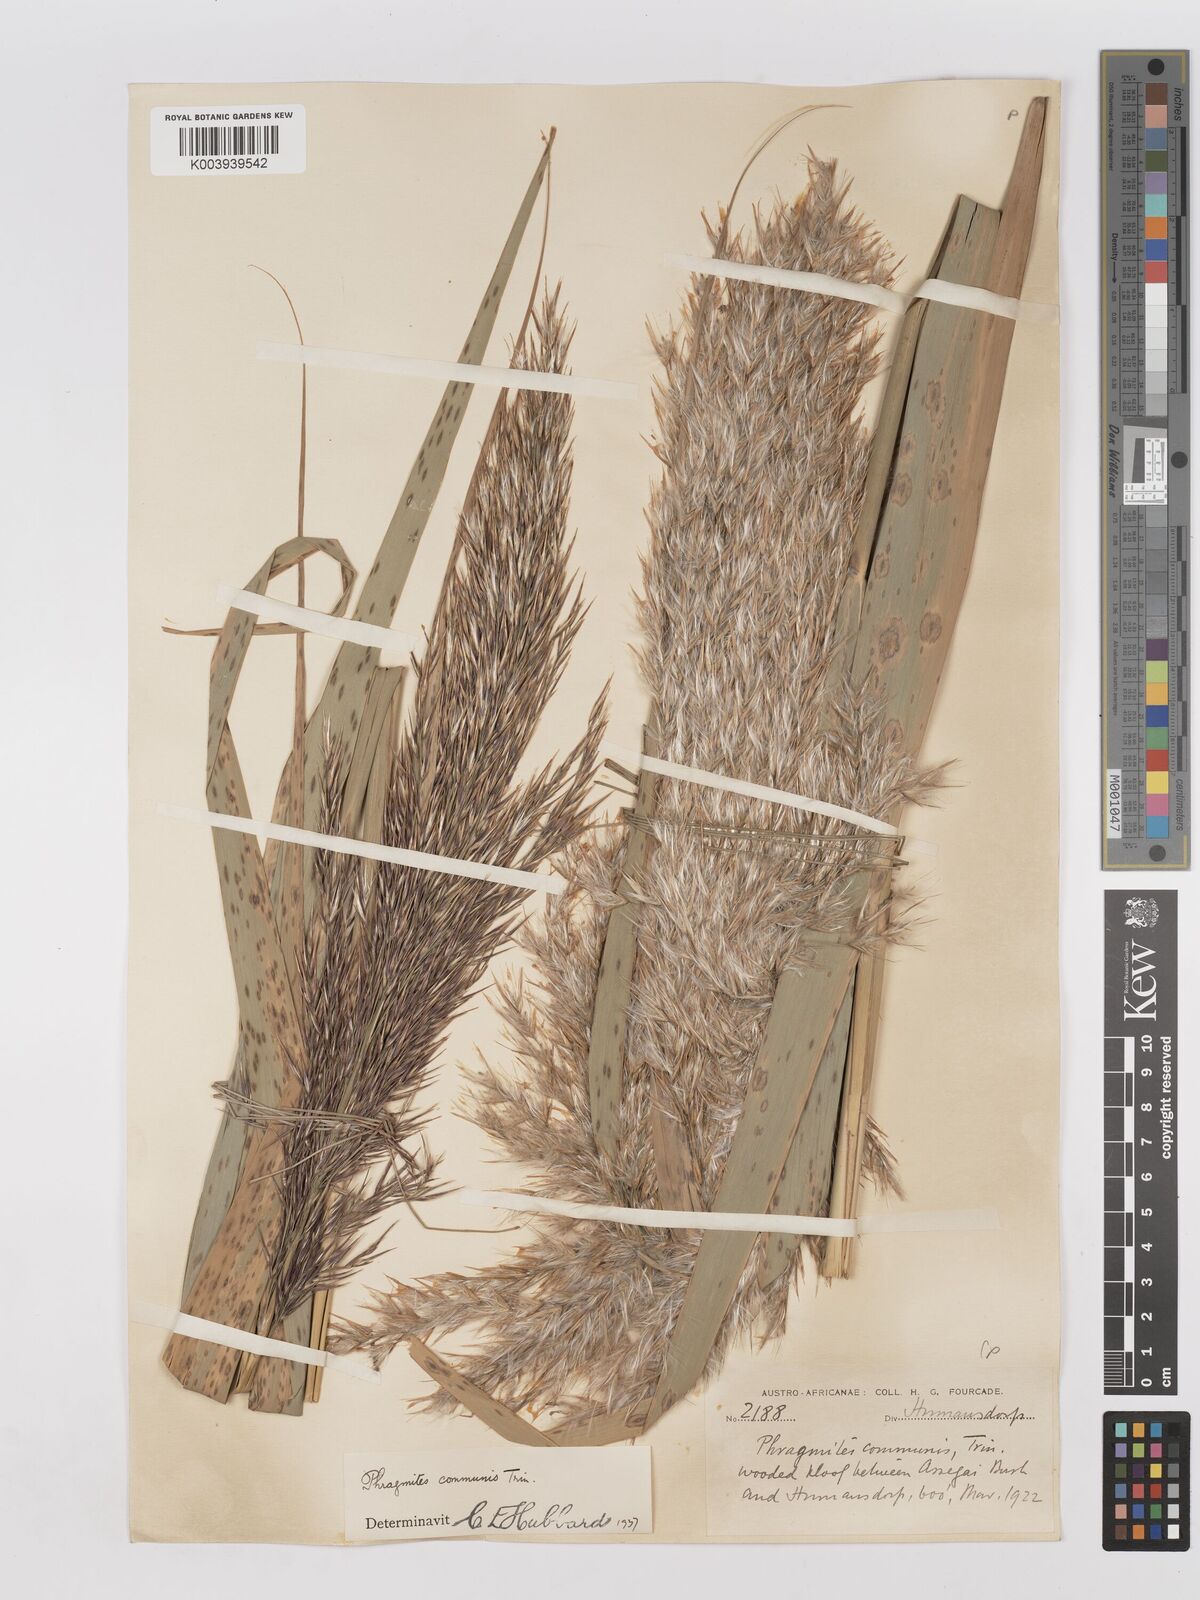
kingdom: Plantae
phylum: Tracheophyta
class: Liliopsida
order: Poales
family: Poaceae
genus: Phragmites
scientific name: Phragmites australis
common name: Common reed
